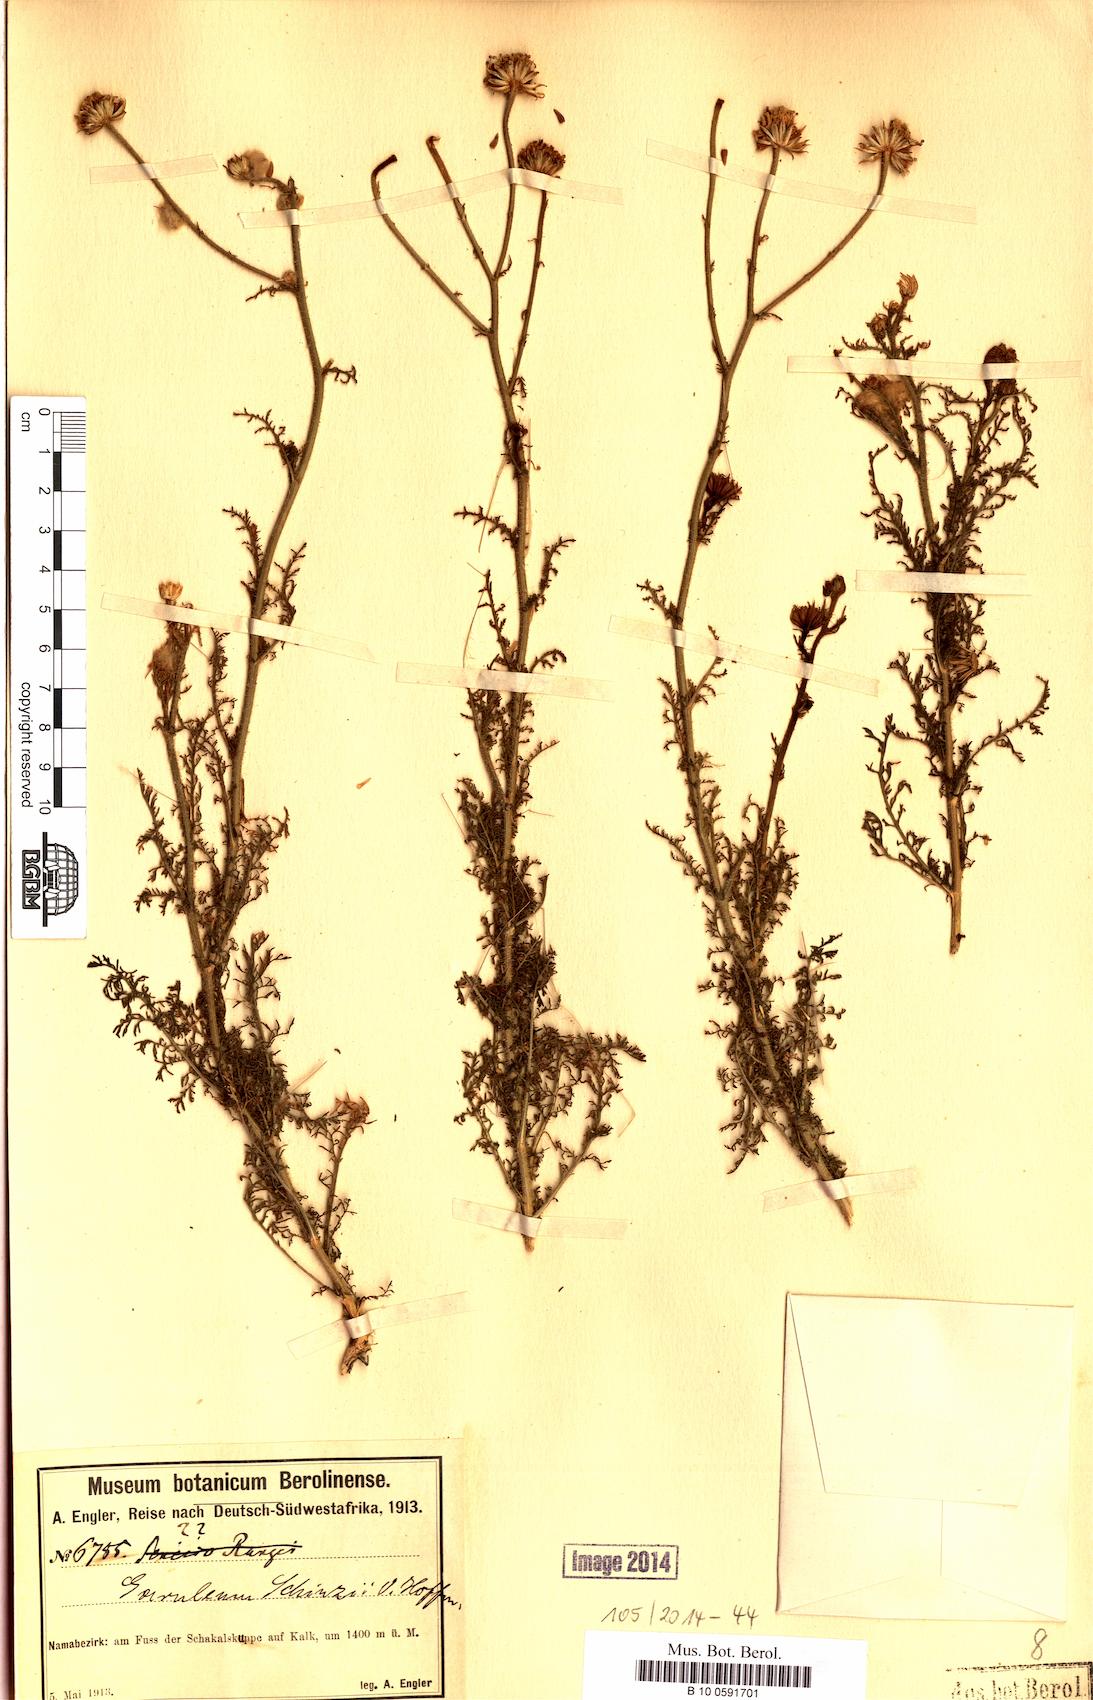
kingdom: Plantae
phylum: Tracheophyta
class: Magnoliopsida
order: Asterales
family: Asteraceae
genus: Garuleum
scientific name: Garuleum schinzii
